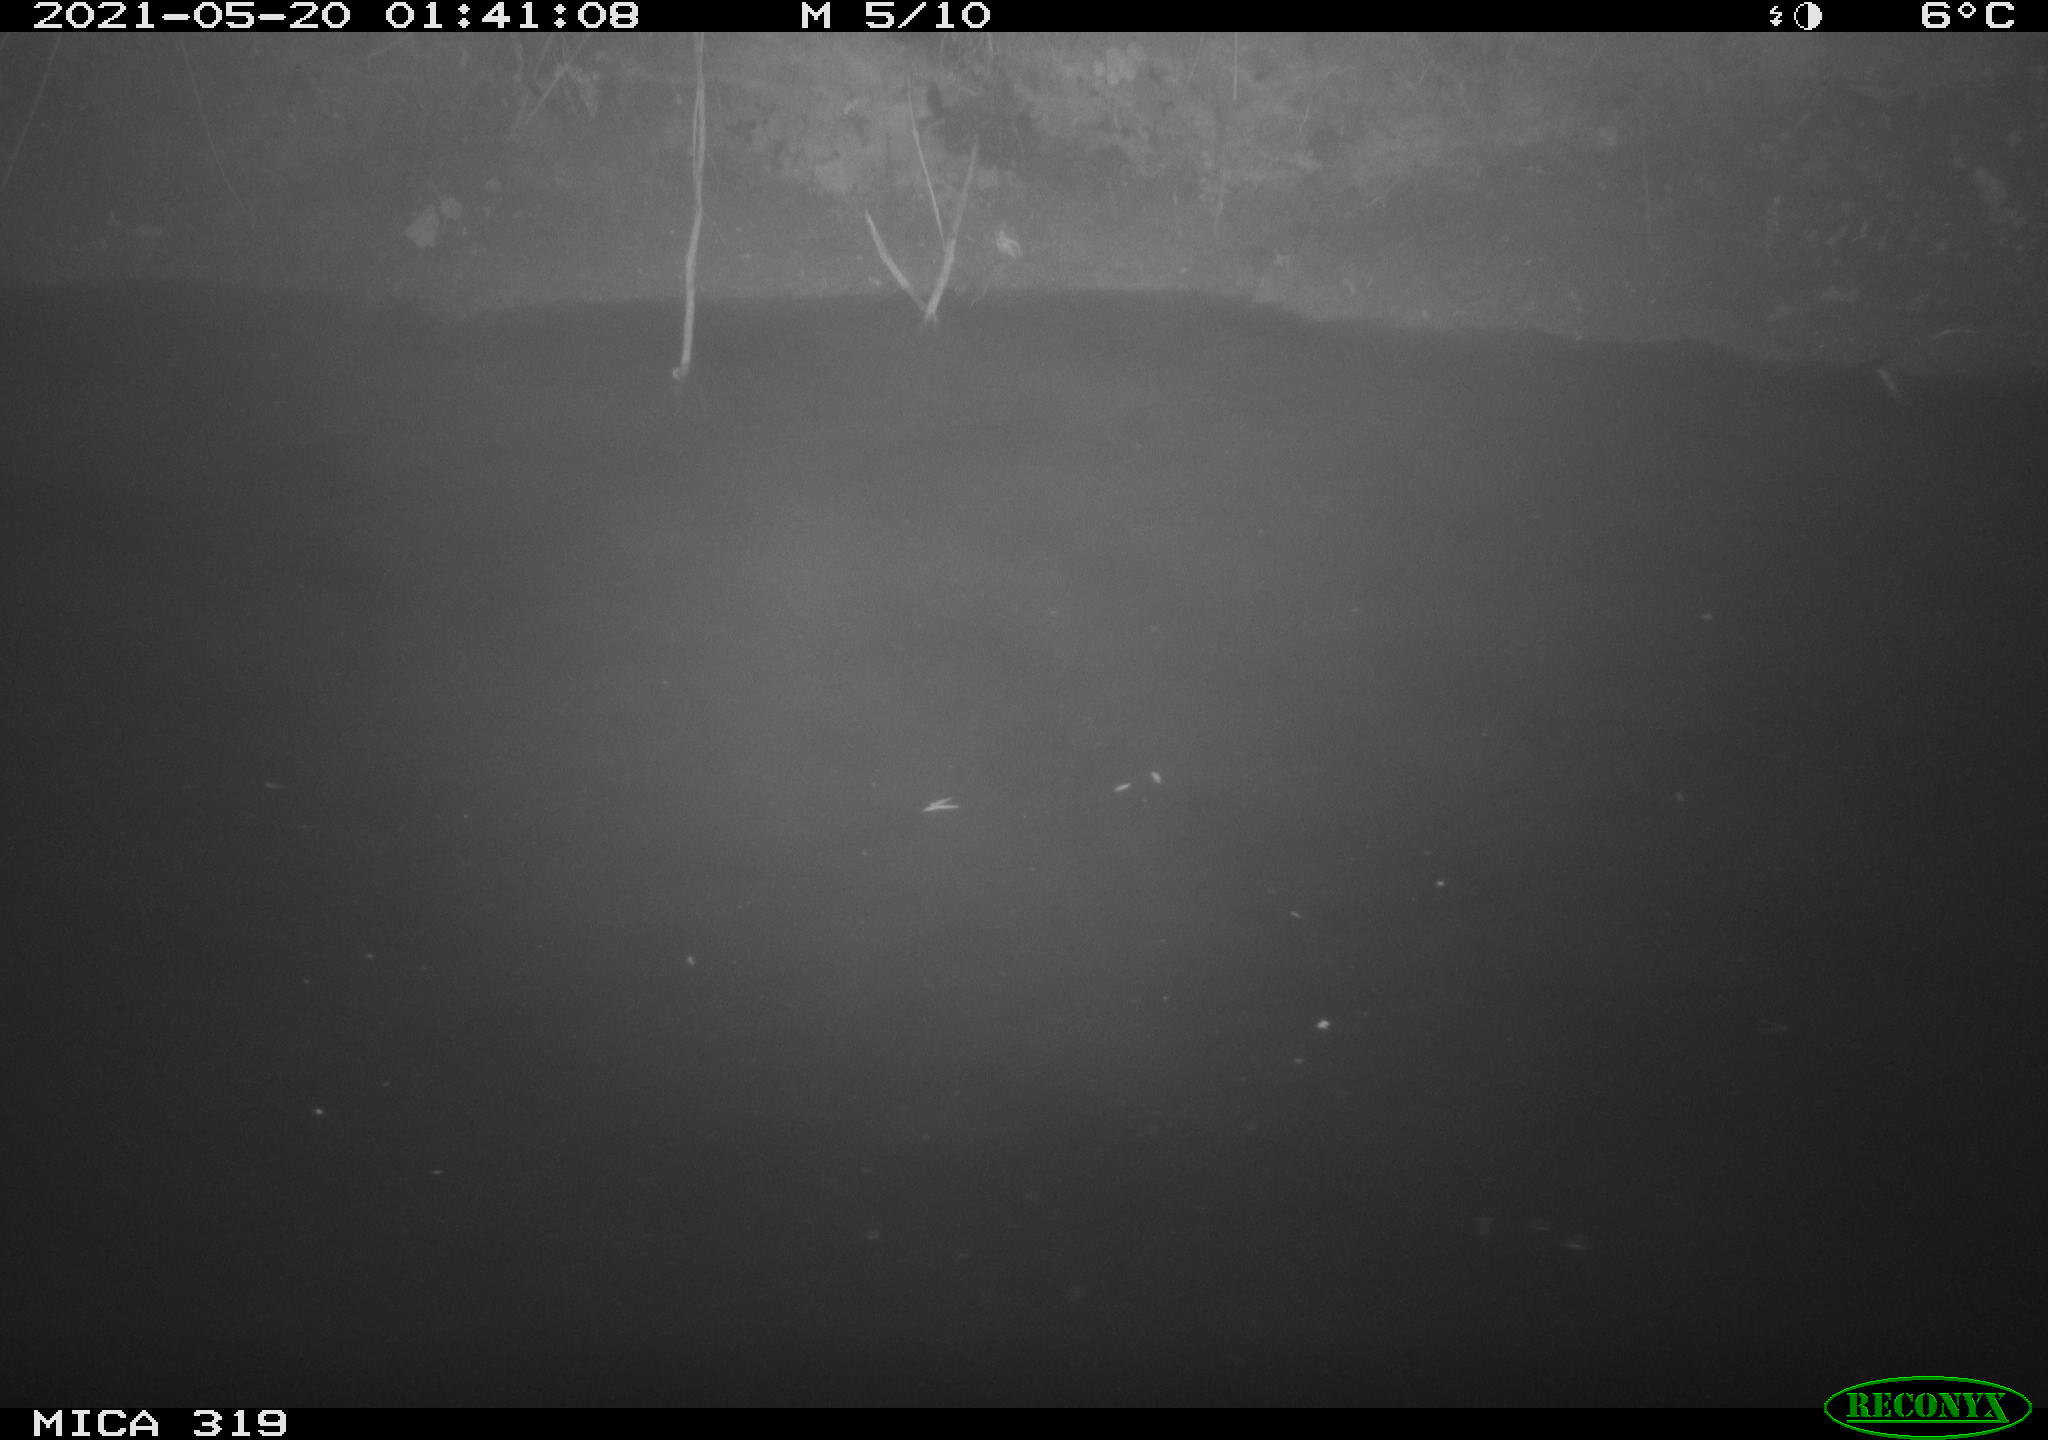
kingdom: Animalia
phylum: Chordata
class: Aves
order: Anseriformes
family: Anatidae
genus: Anas
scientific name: Anas platyrhynchos
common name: Mallard
